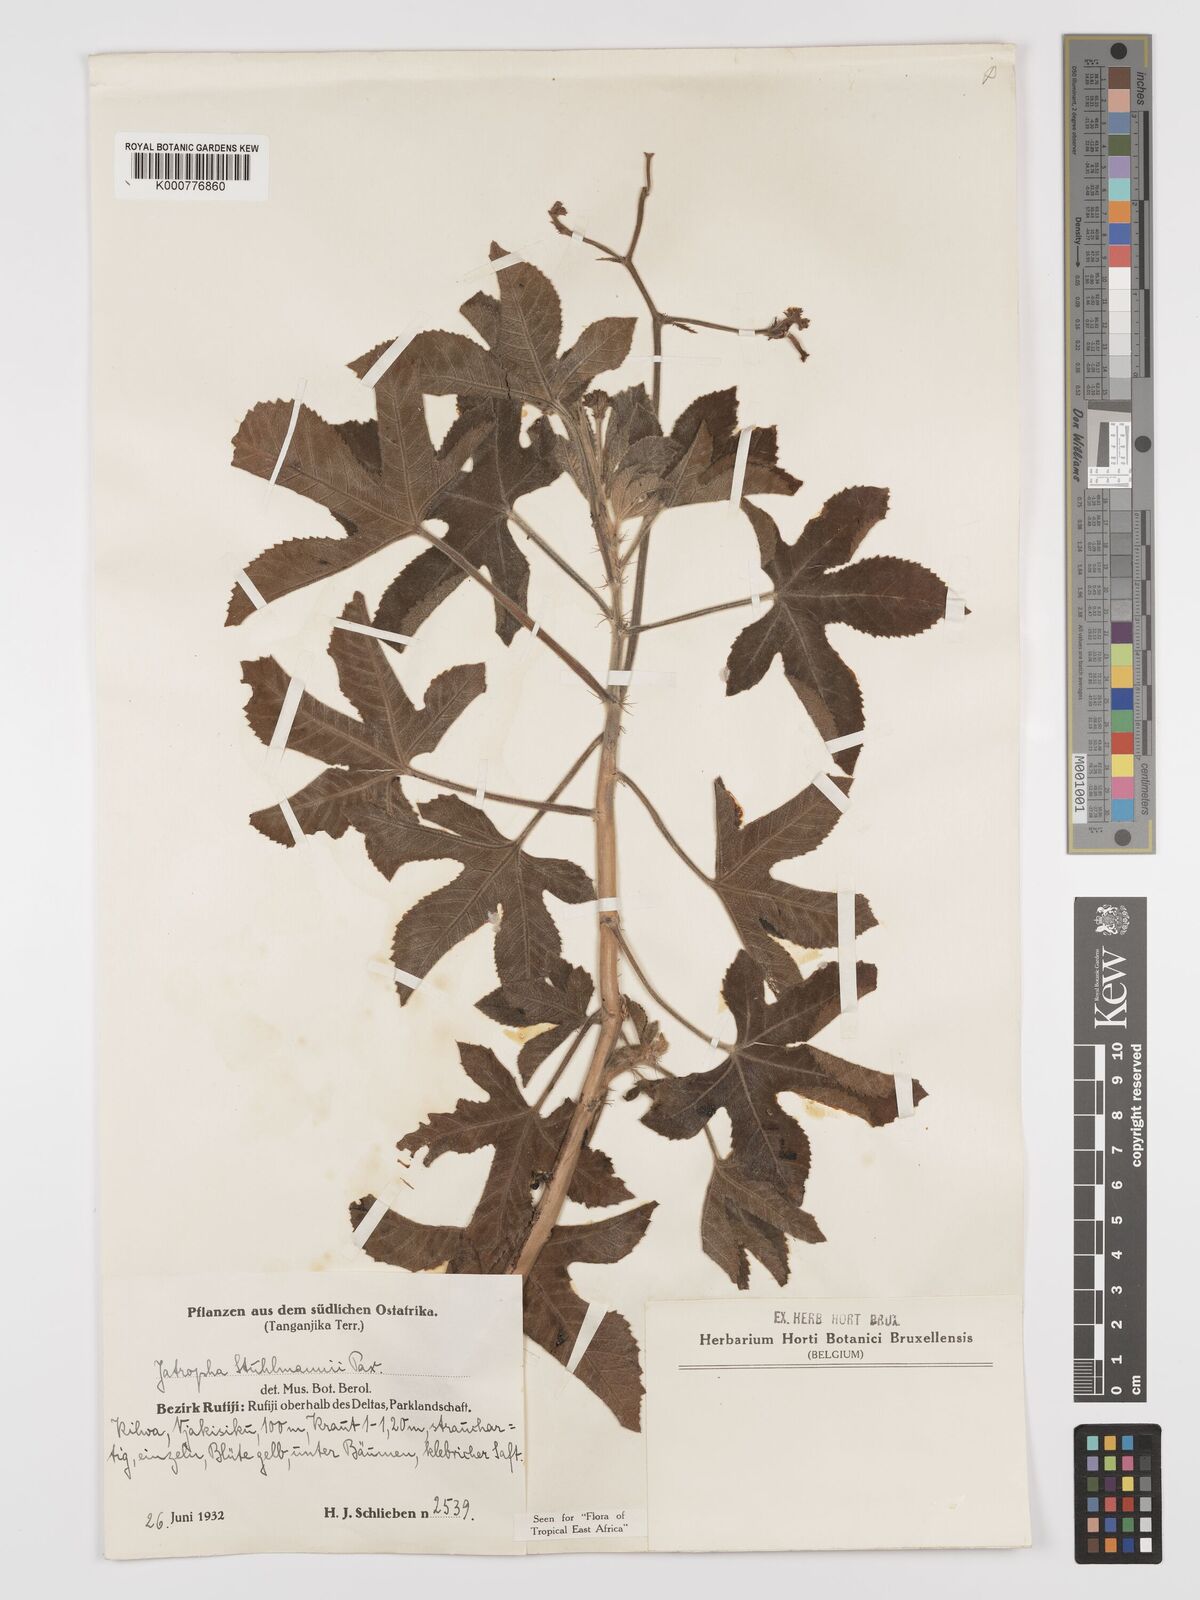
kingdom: Plantae
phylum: Tracheophyta
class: Magnoliopsida
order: Malpighiales
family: Euphorbiaceae
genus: Jatropha
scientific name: Jatropha stuhlmannii
